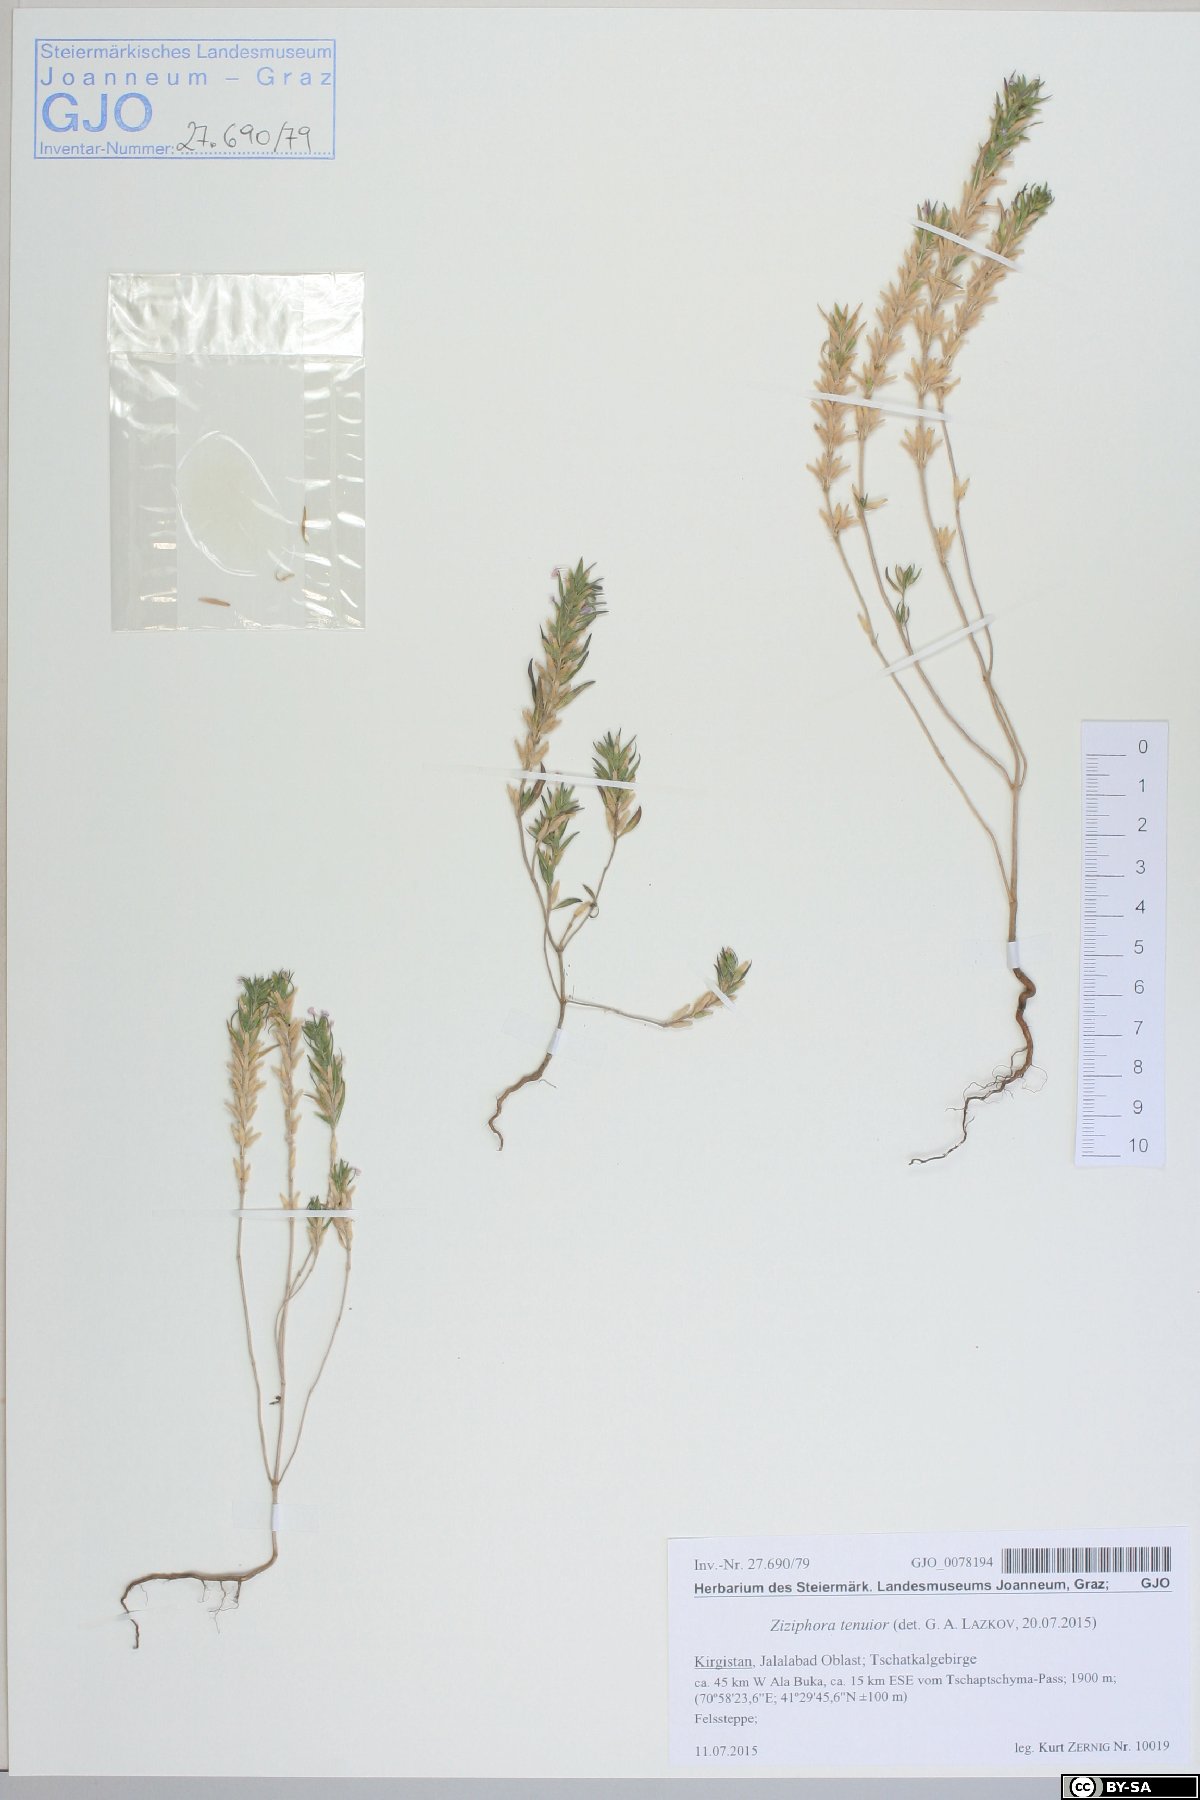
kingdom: Plantae
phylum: Tracheophyta
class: Magnoliopsida
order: Lamiales
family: Lamiaceae
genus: Ziziphora
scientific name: Ziziphora tenuior
